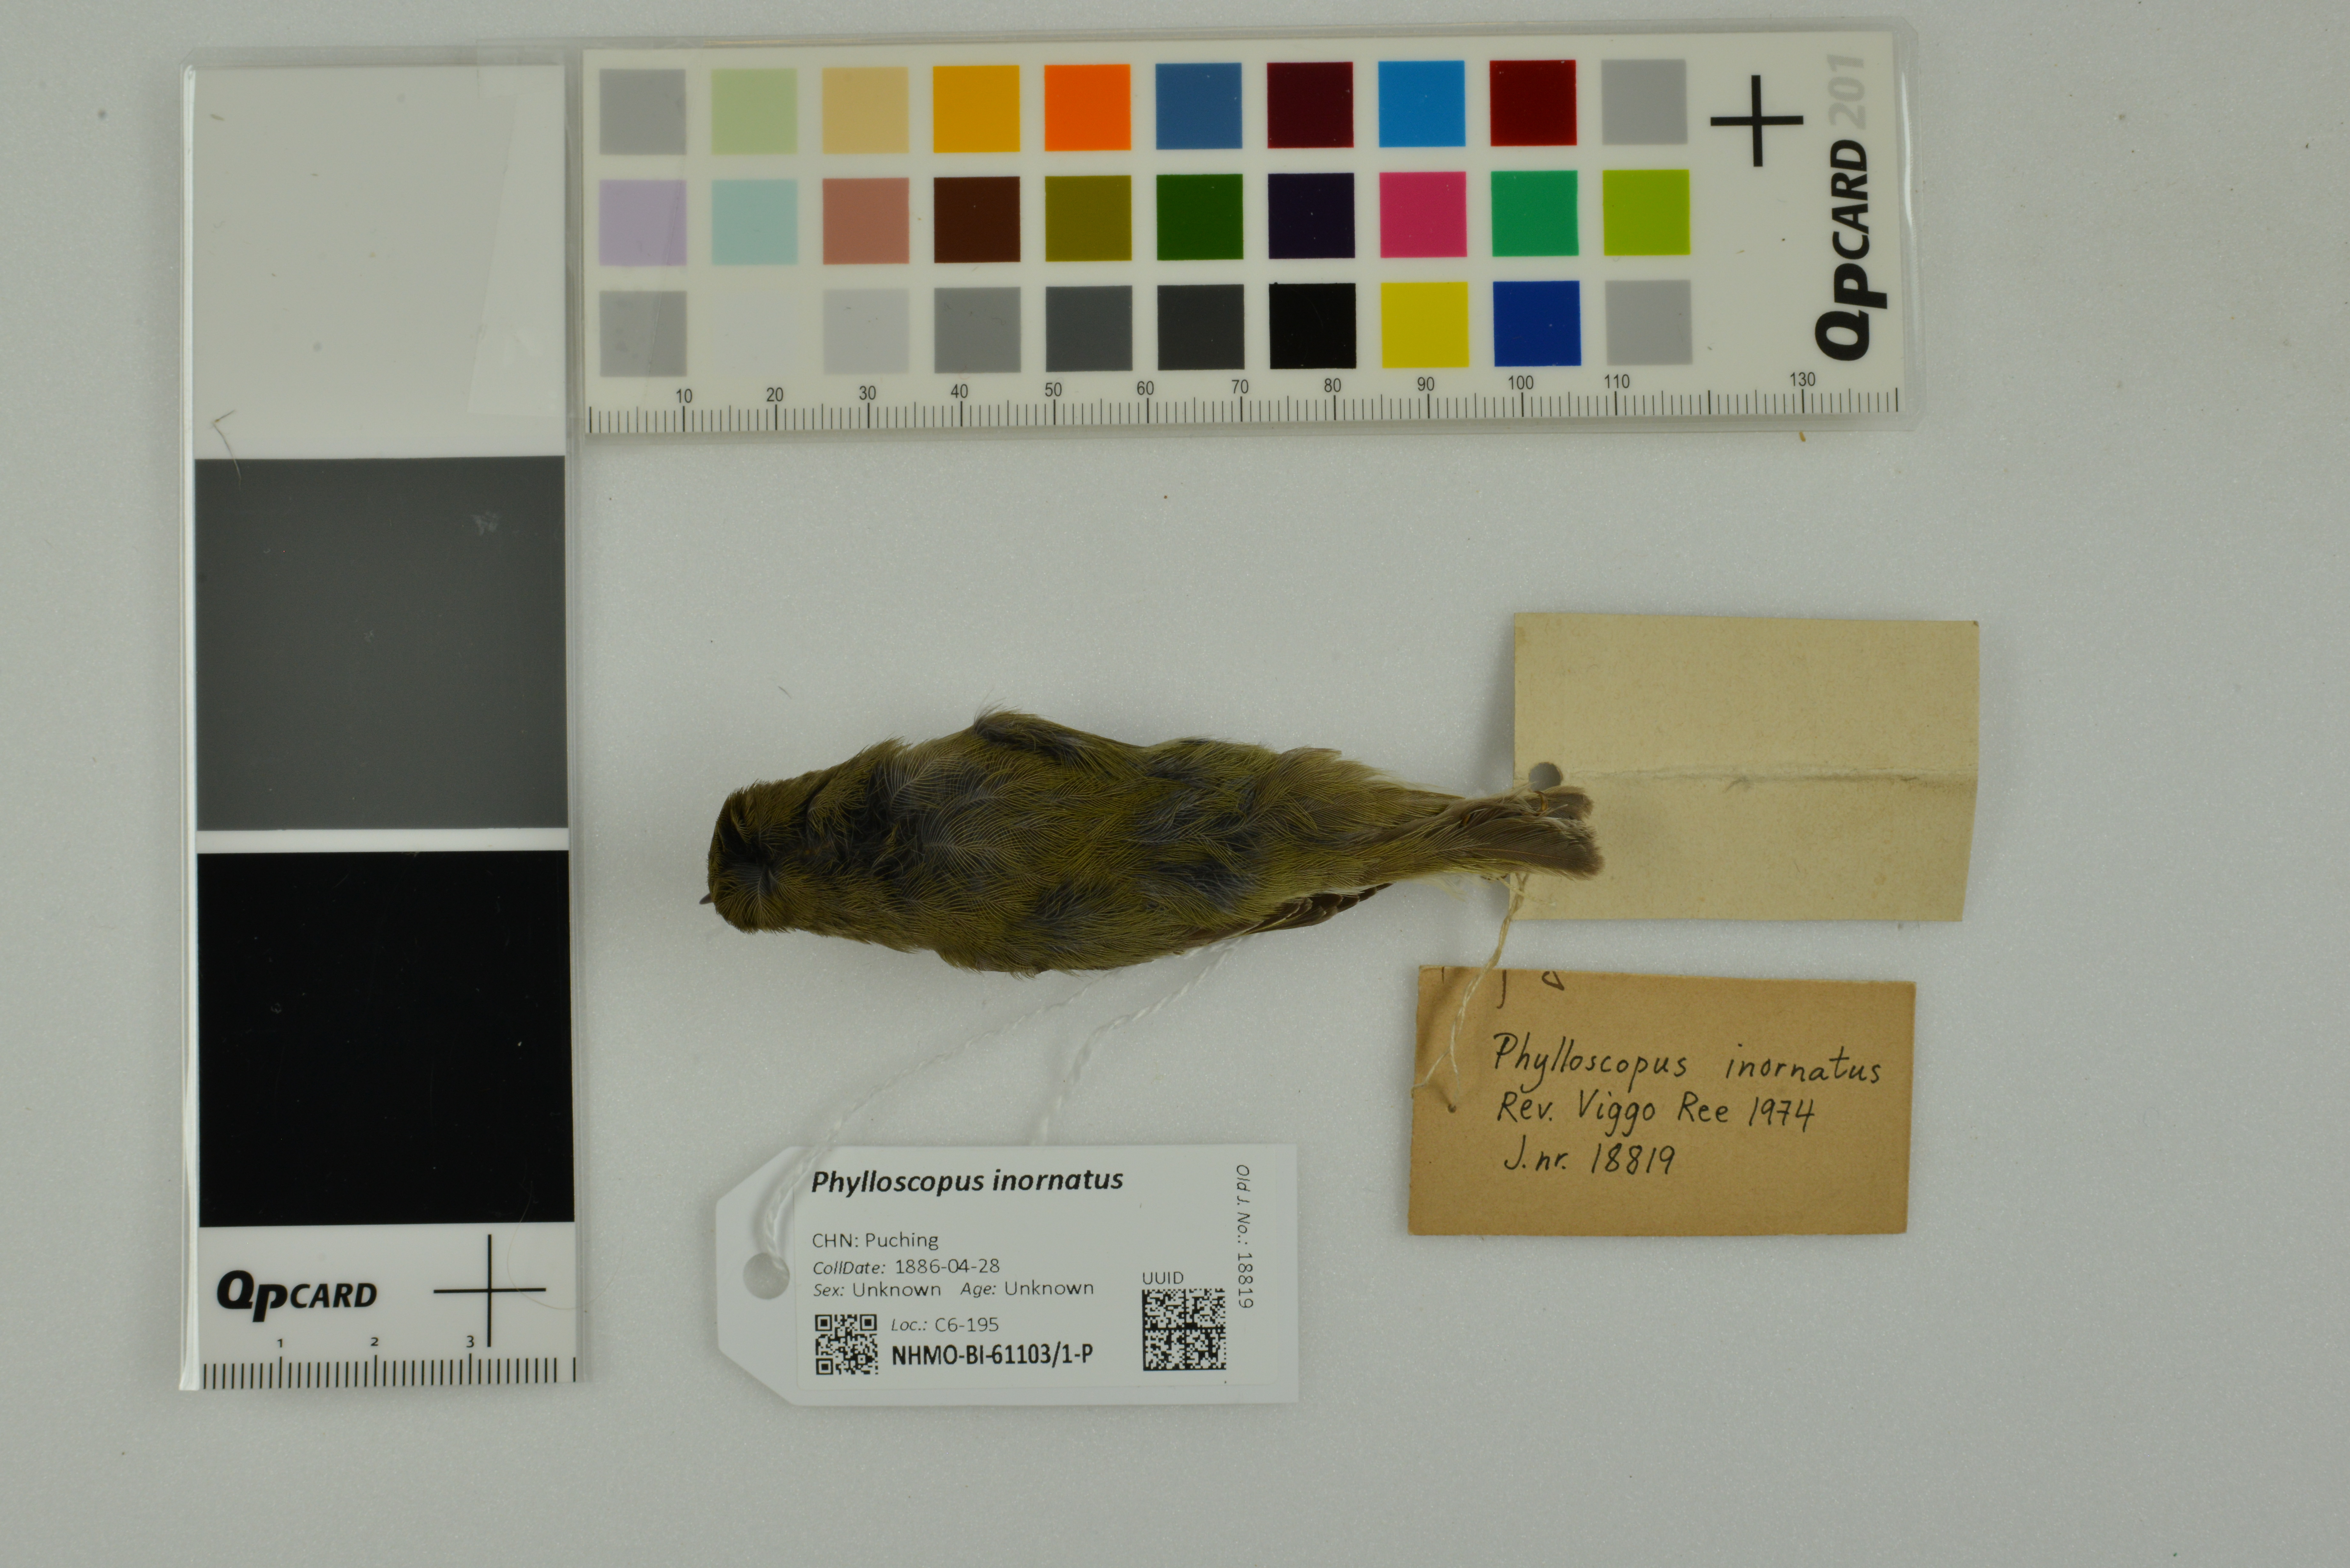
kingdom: Animalia
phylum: Chordata
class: Aves
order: Passeriformes
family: Phylloscopidae
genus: Phylloscopus
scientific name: Phylloscopus inornatus
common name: Yellow-browed warbler
